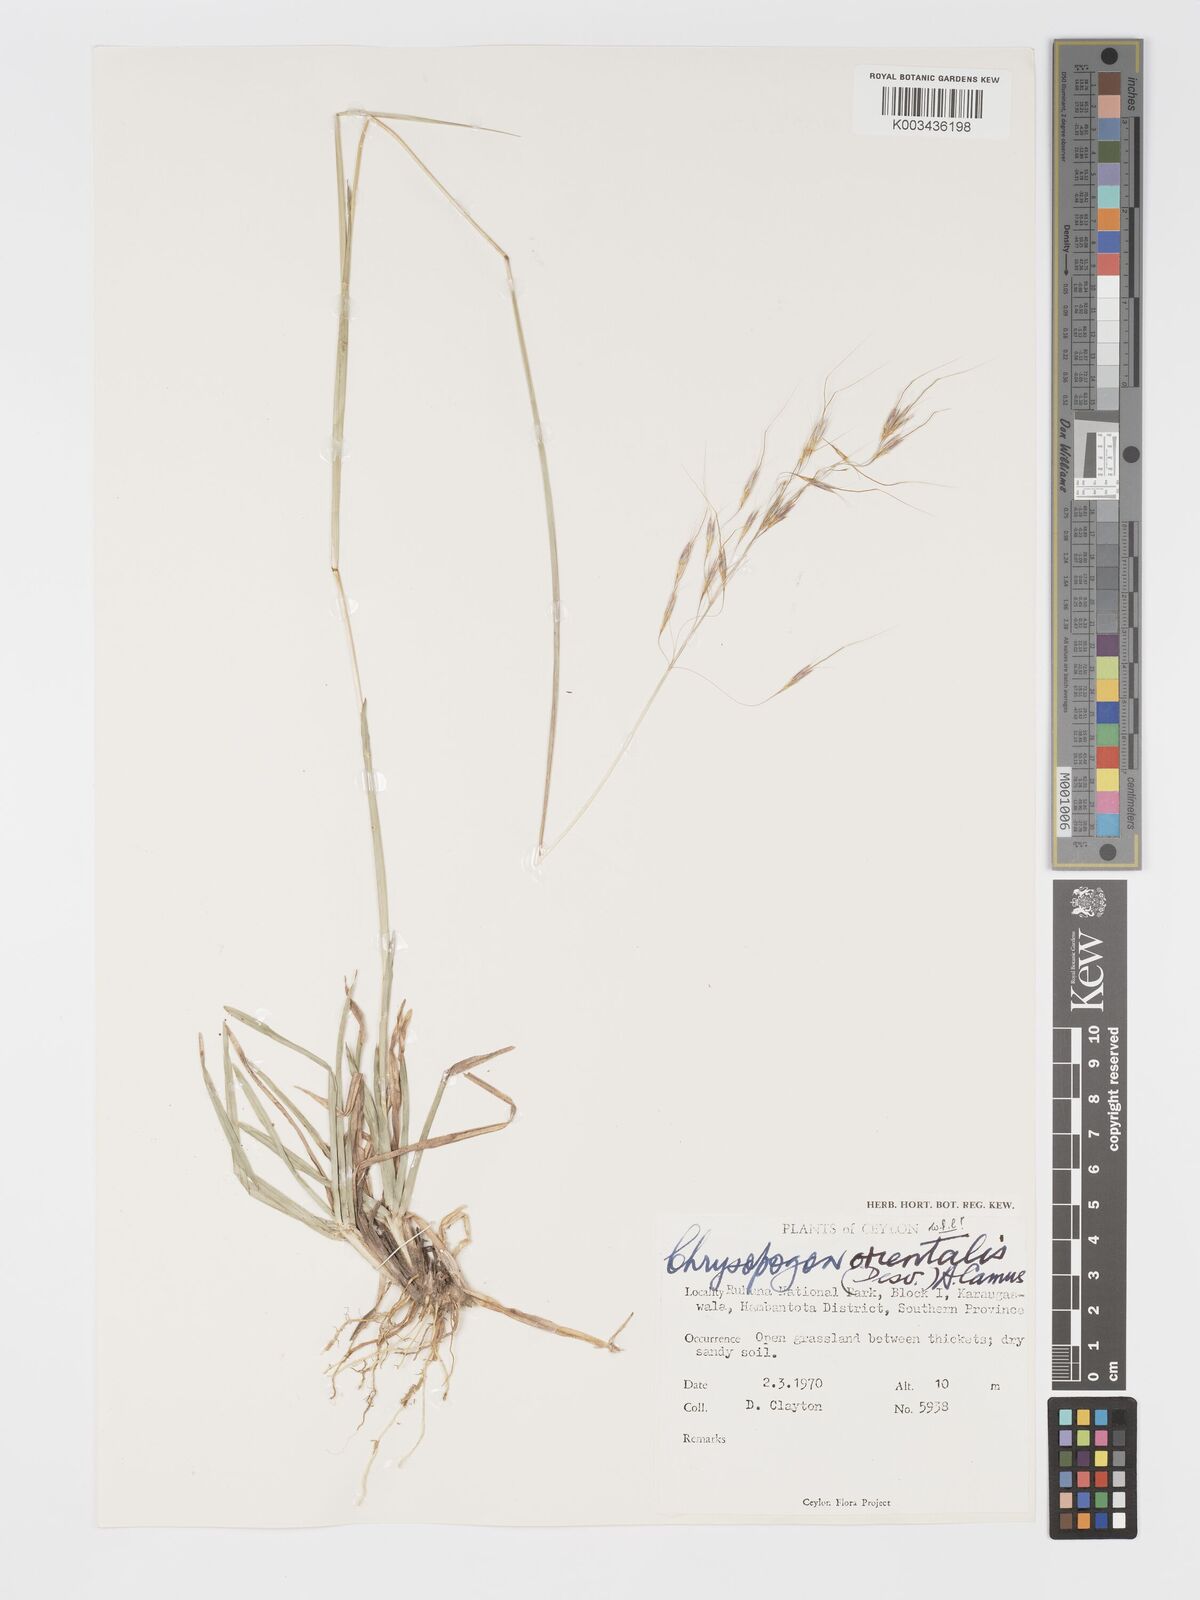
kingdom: Plantae
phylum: Tracheophyta
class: Liliopsida
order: Poales
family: Poaceae
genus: Chrysopogon
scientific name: Chrysopogon orientalis
